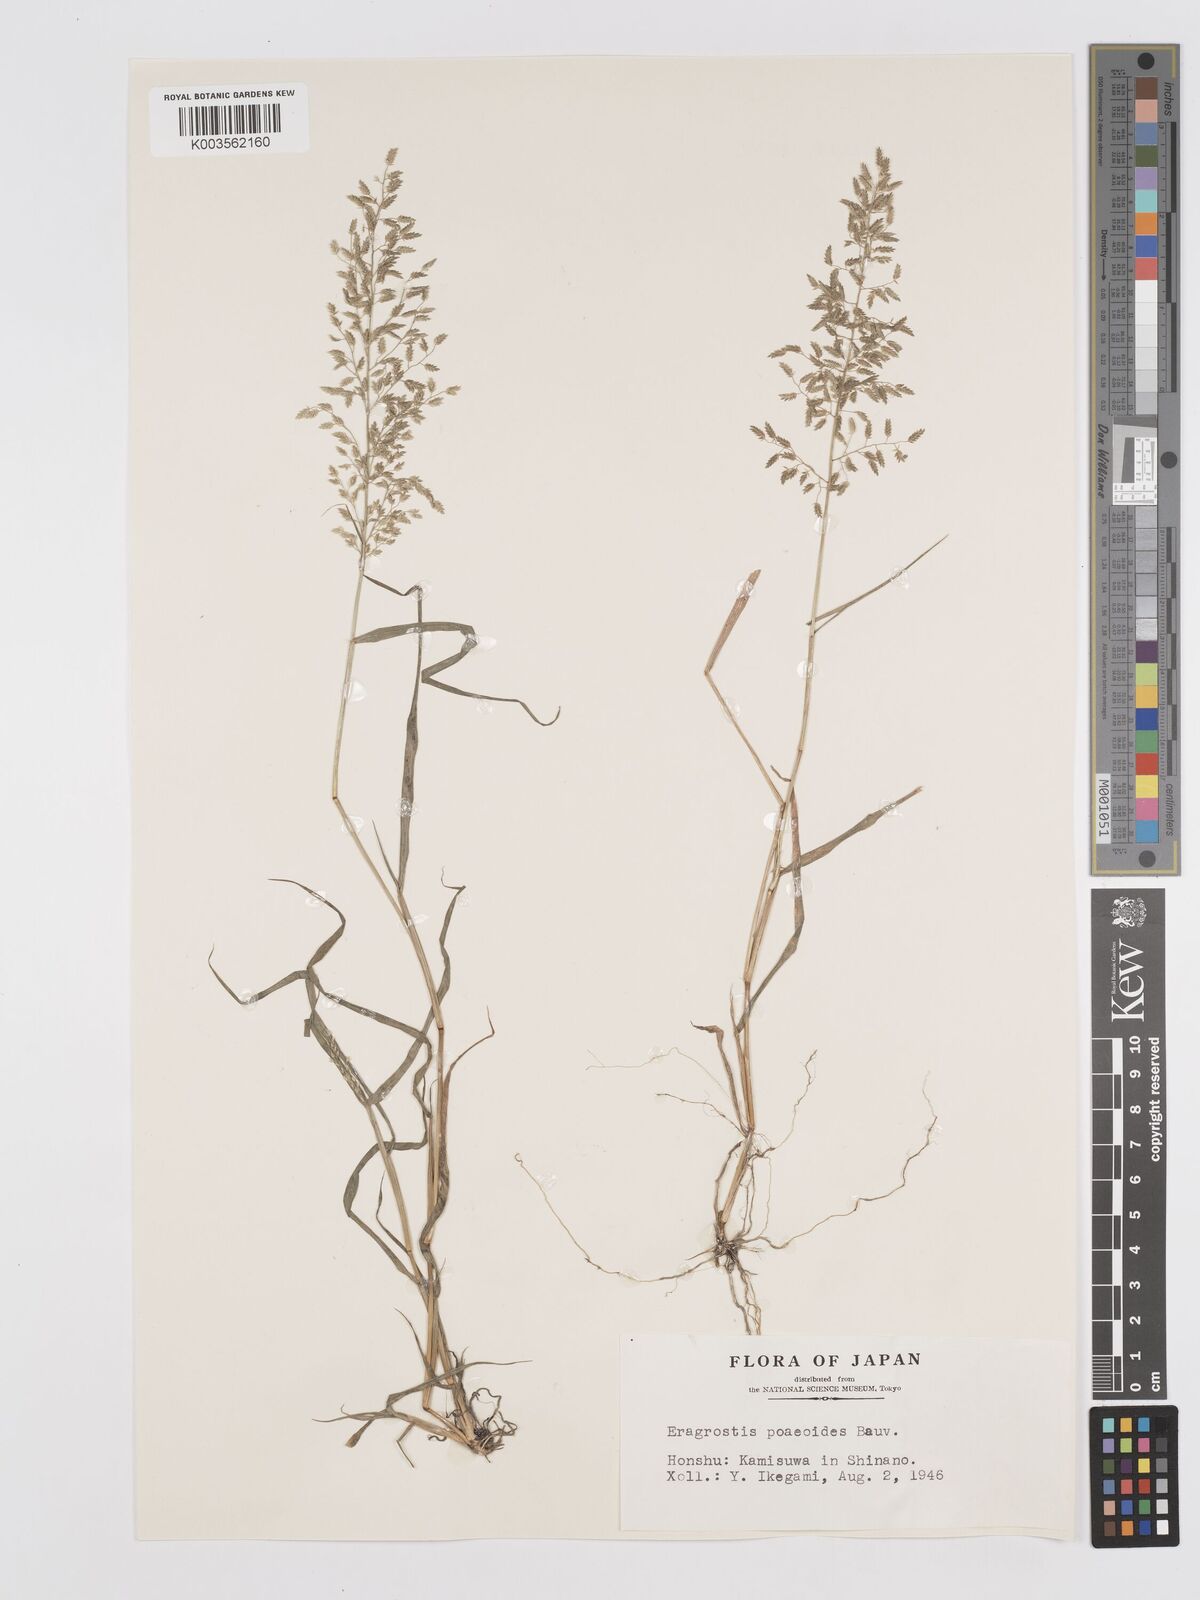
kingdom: Plantae
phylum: Tracheophyta
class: Liliopsida
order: Poales
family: Poaceae
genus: Eragrostis
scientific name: Eragrostis minor
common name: Small love-grass
